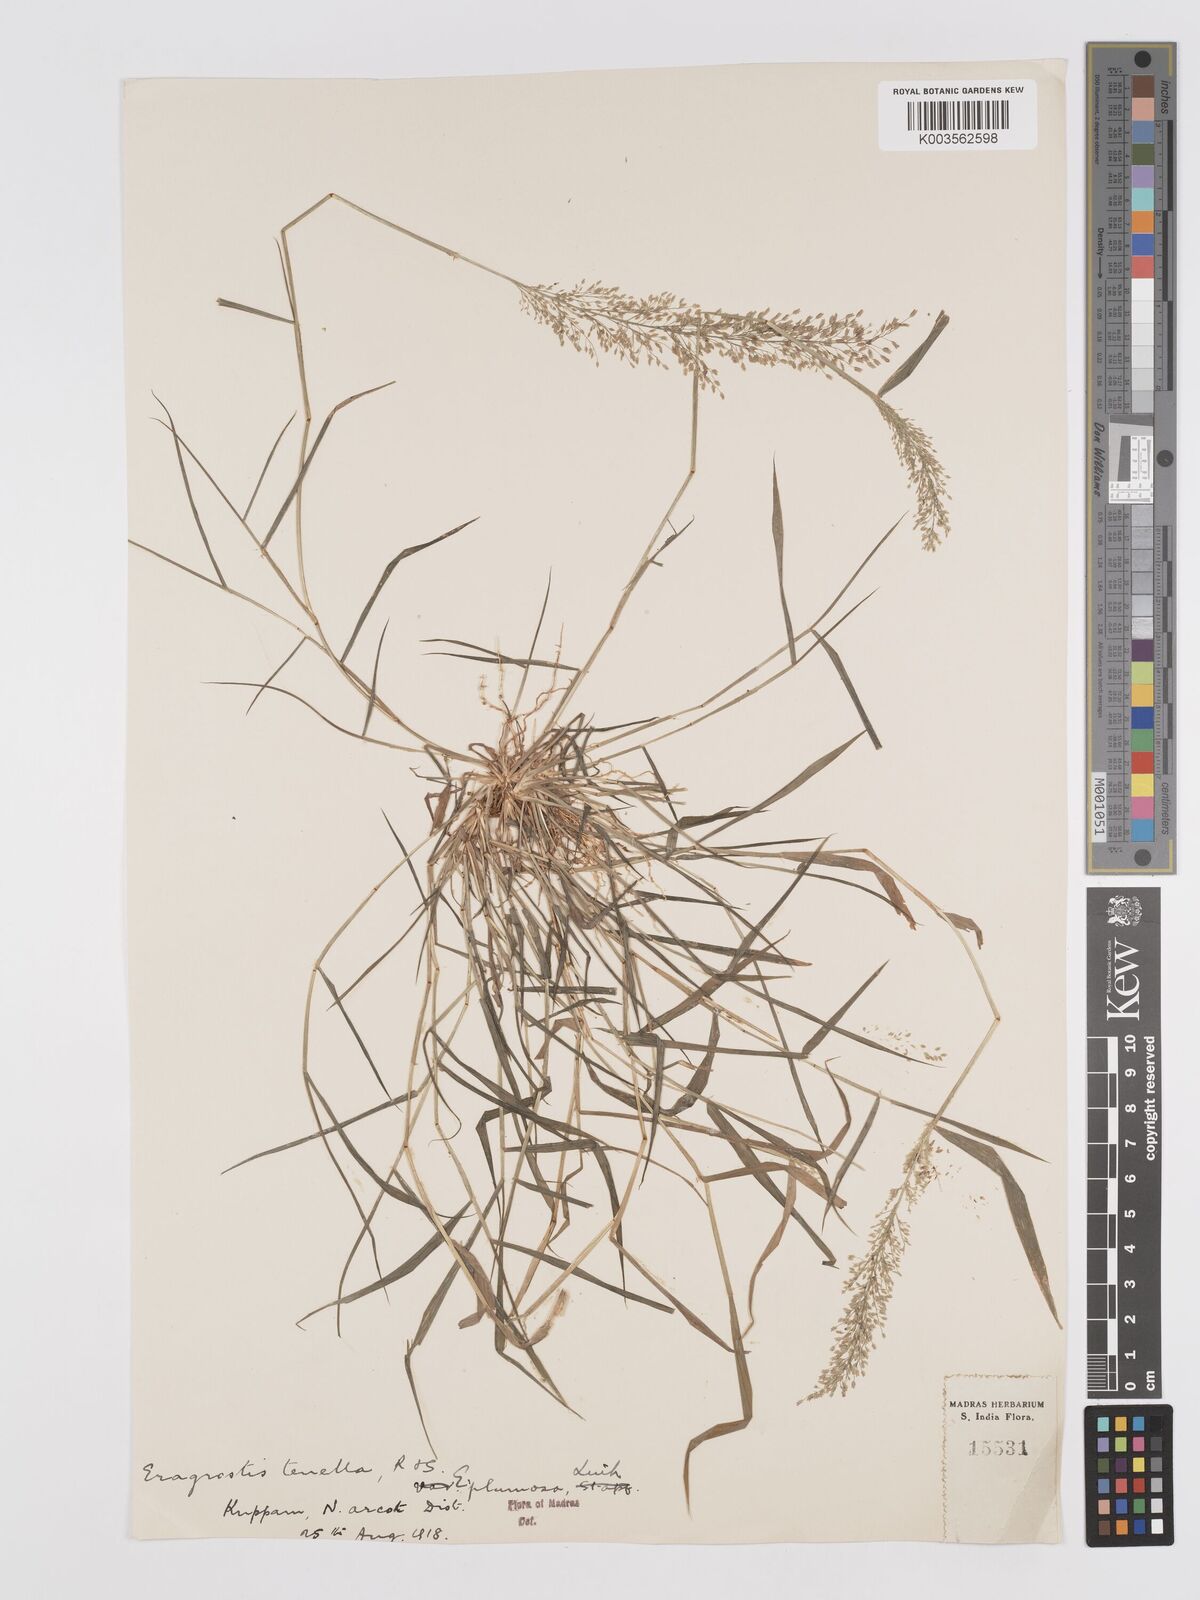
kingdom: Plantae
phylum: Tracheophyta
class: Liliopsida
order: Poales
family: Poaceae
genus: Eragrostis
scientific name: Eragrostis tenella
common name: Japanese lovegrass
